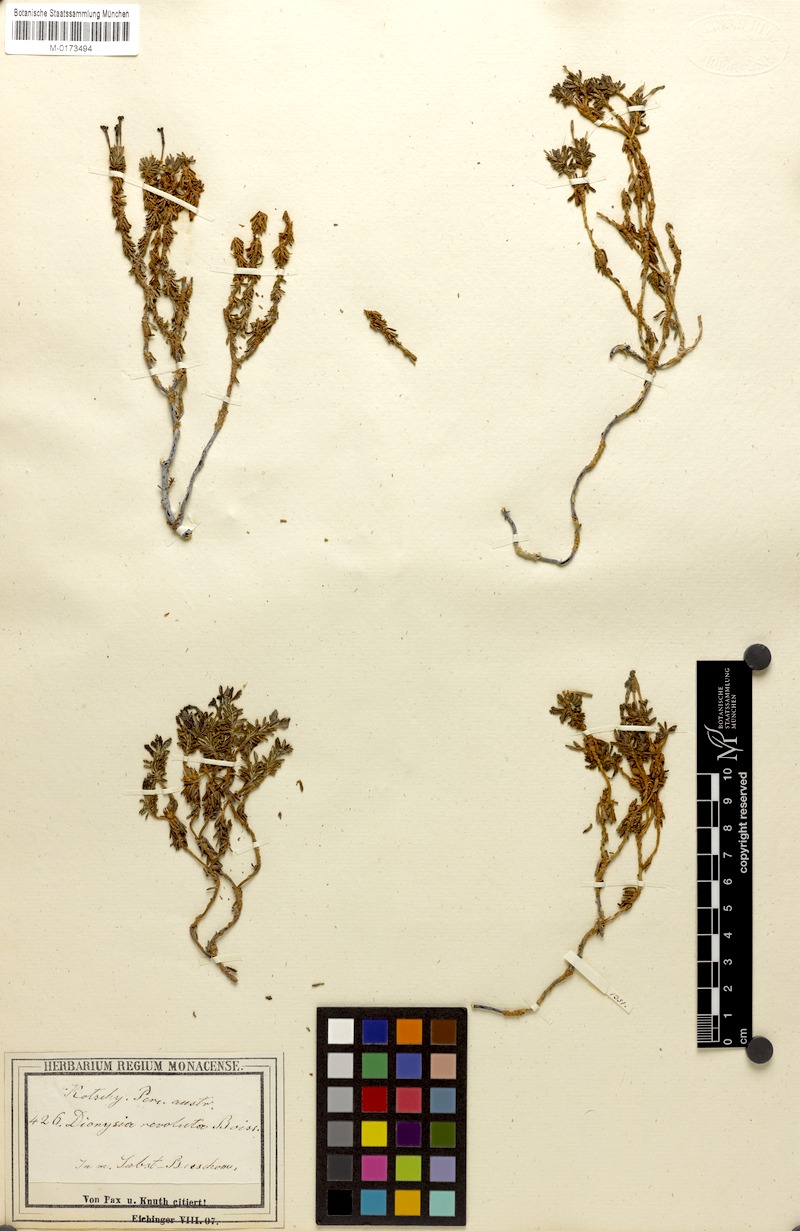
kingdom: Plantae
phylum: Tracheophyta
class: Magnoliopsida
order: Ericales
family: Primulaceae
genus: Dionysia
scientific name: Dionysia revoluta
